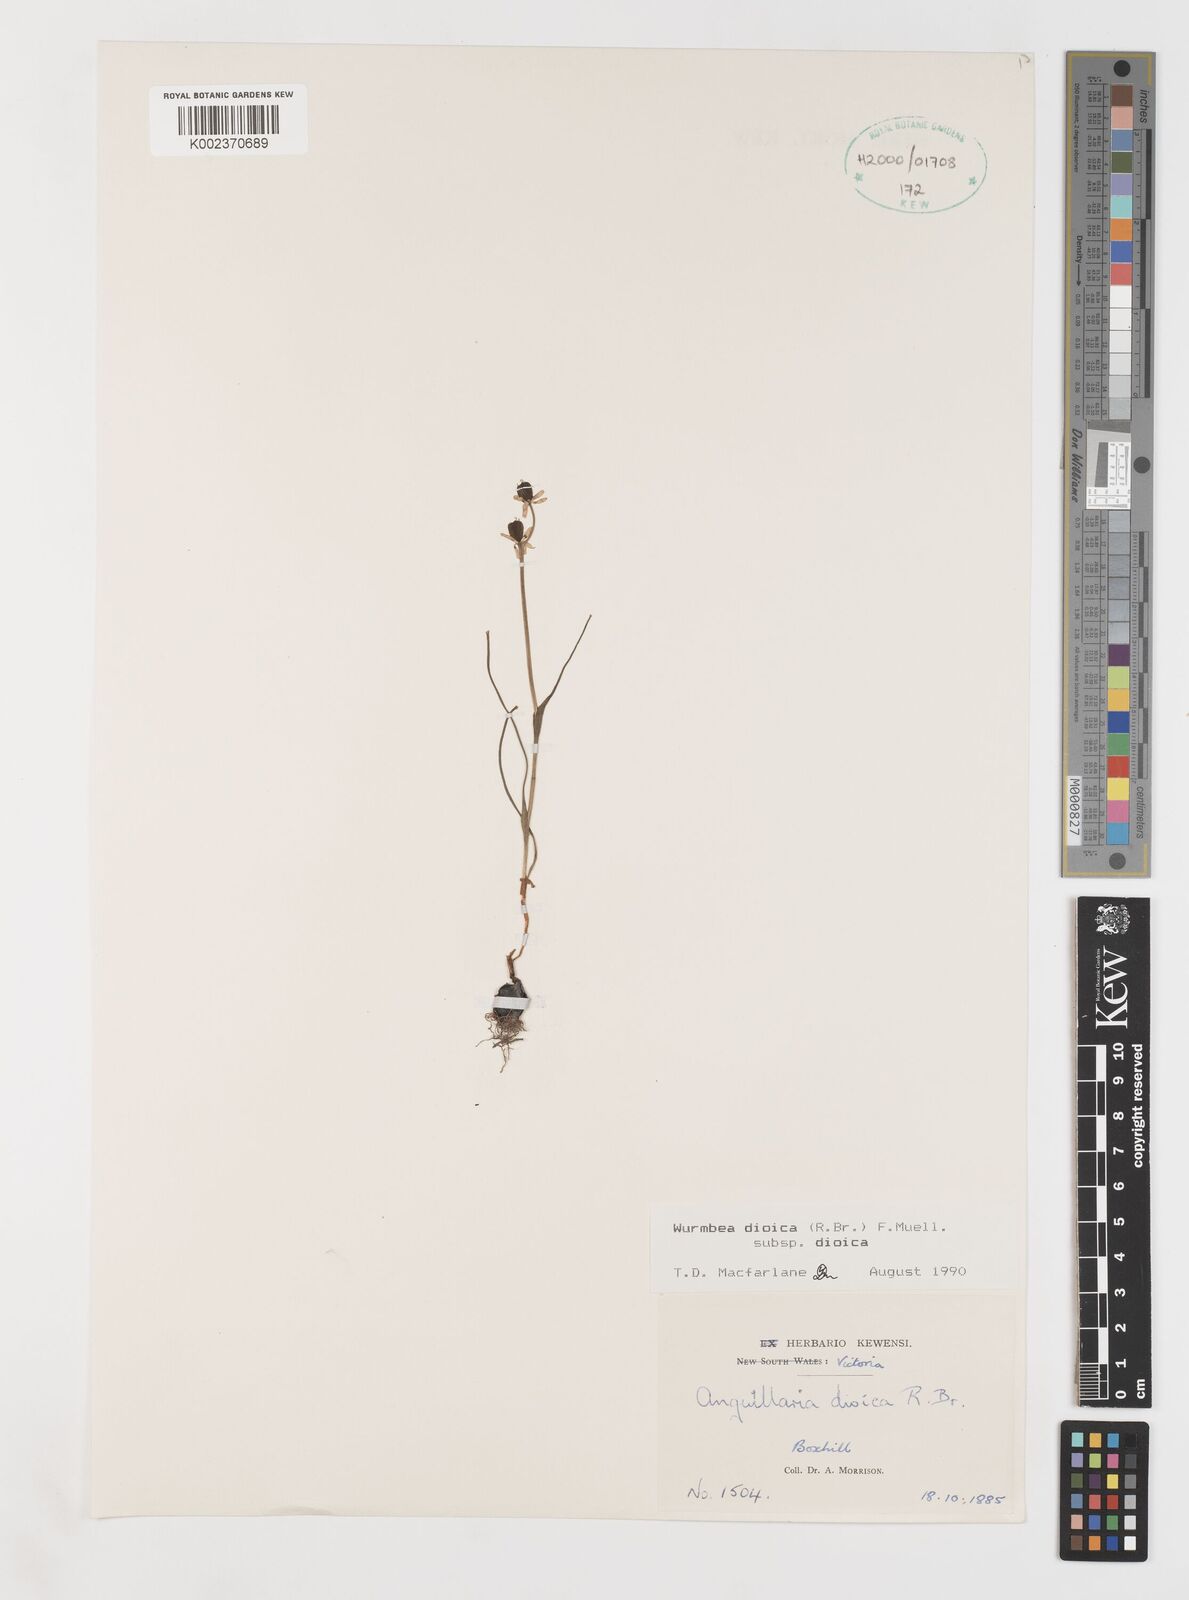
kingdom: Plantae
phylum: Tracheophyta
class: Liliopsida
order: Liliales
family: Colchicaceae
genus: Wurmbea
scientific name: Wurmbea dioica
